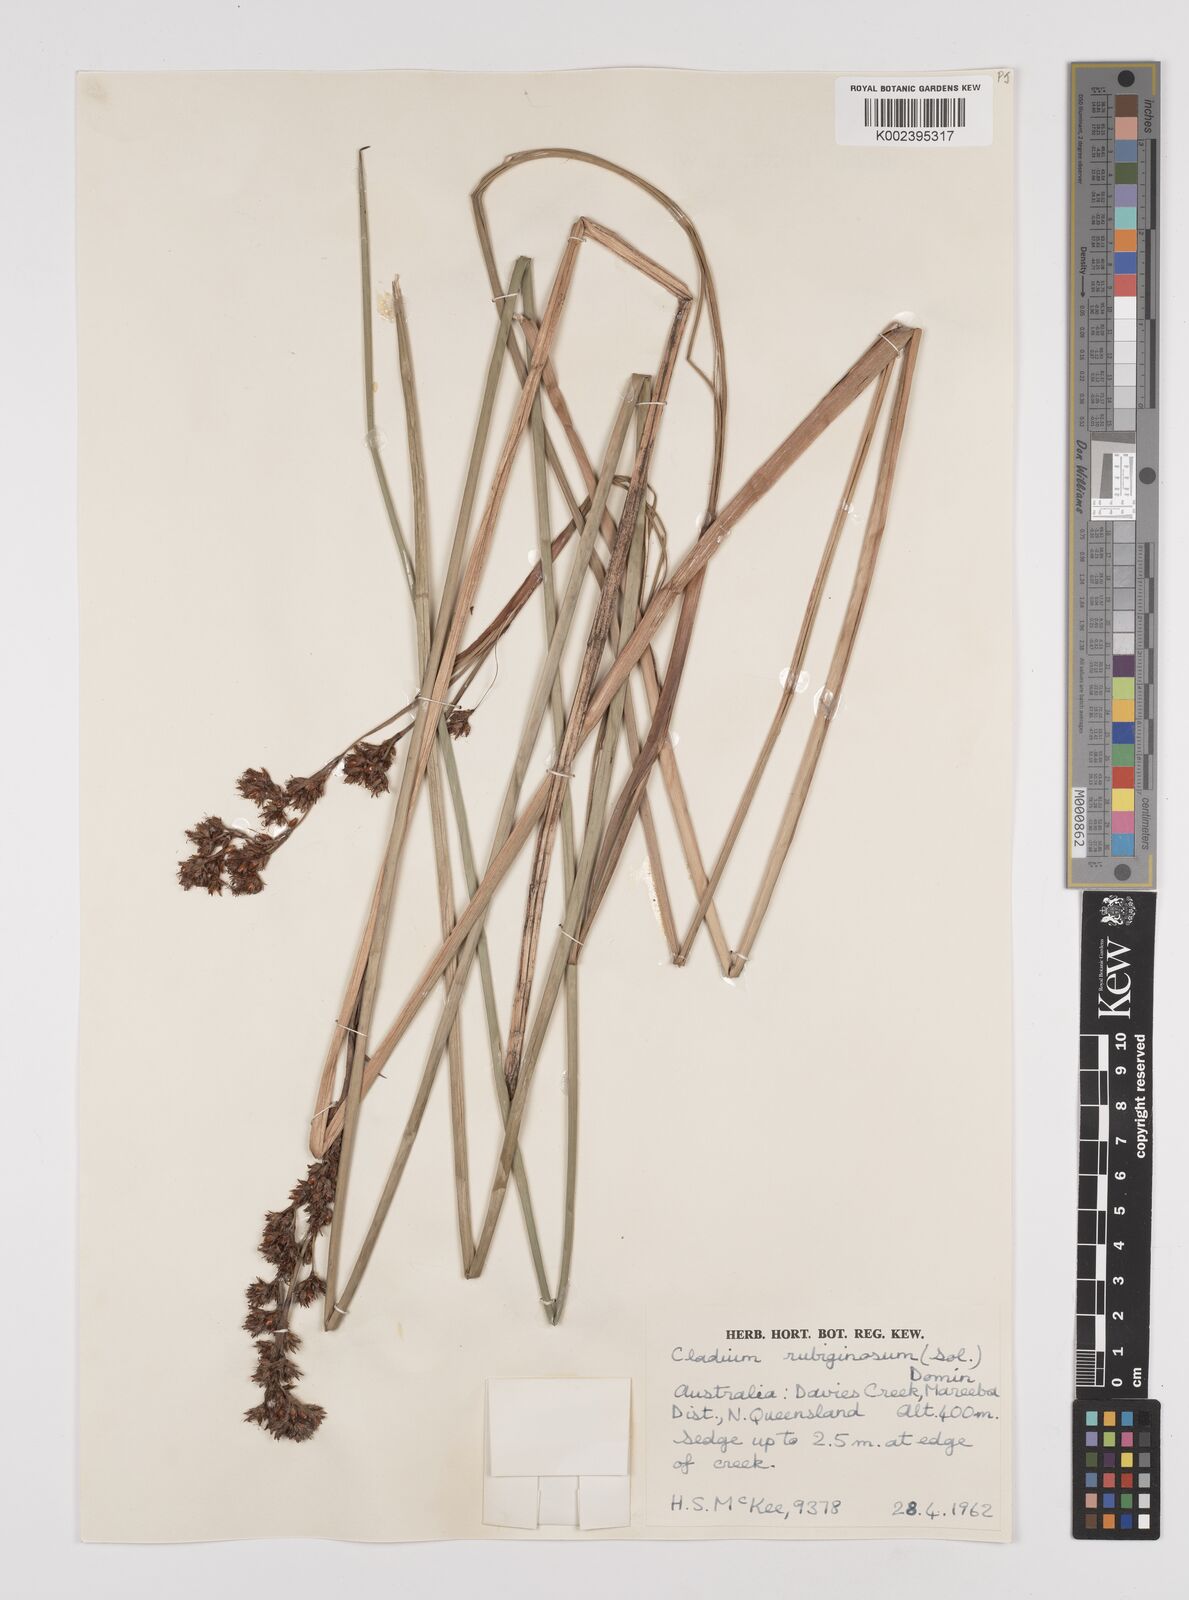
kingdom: Plantae
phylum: Tracheophyta
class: Liliopsida
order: Poales
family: Cyperaceae
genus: Machaerina
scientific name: Machaerina rubiginosa
